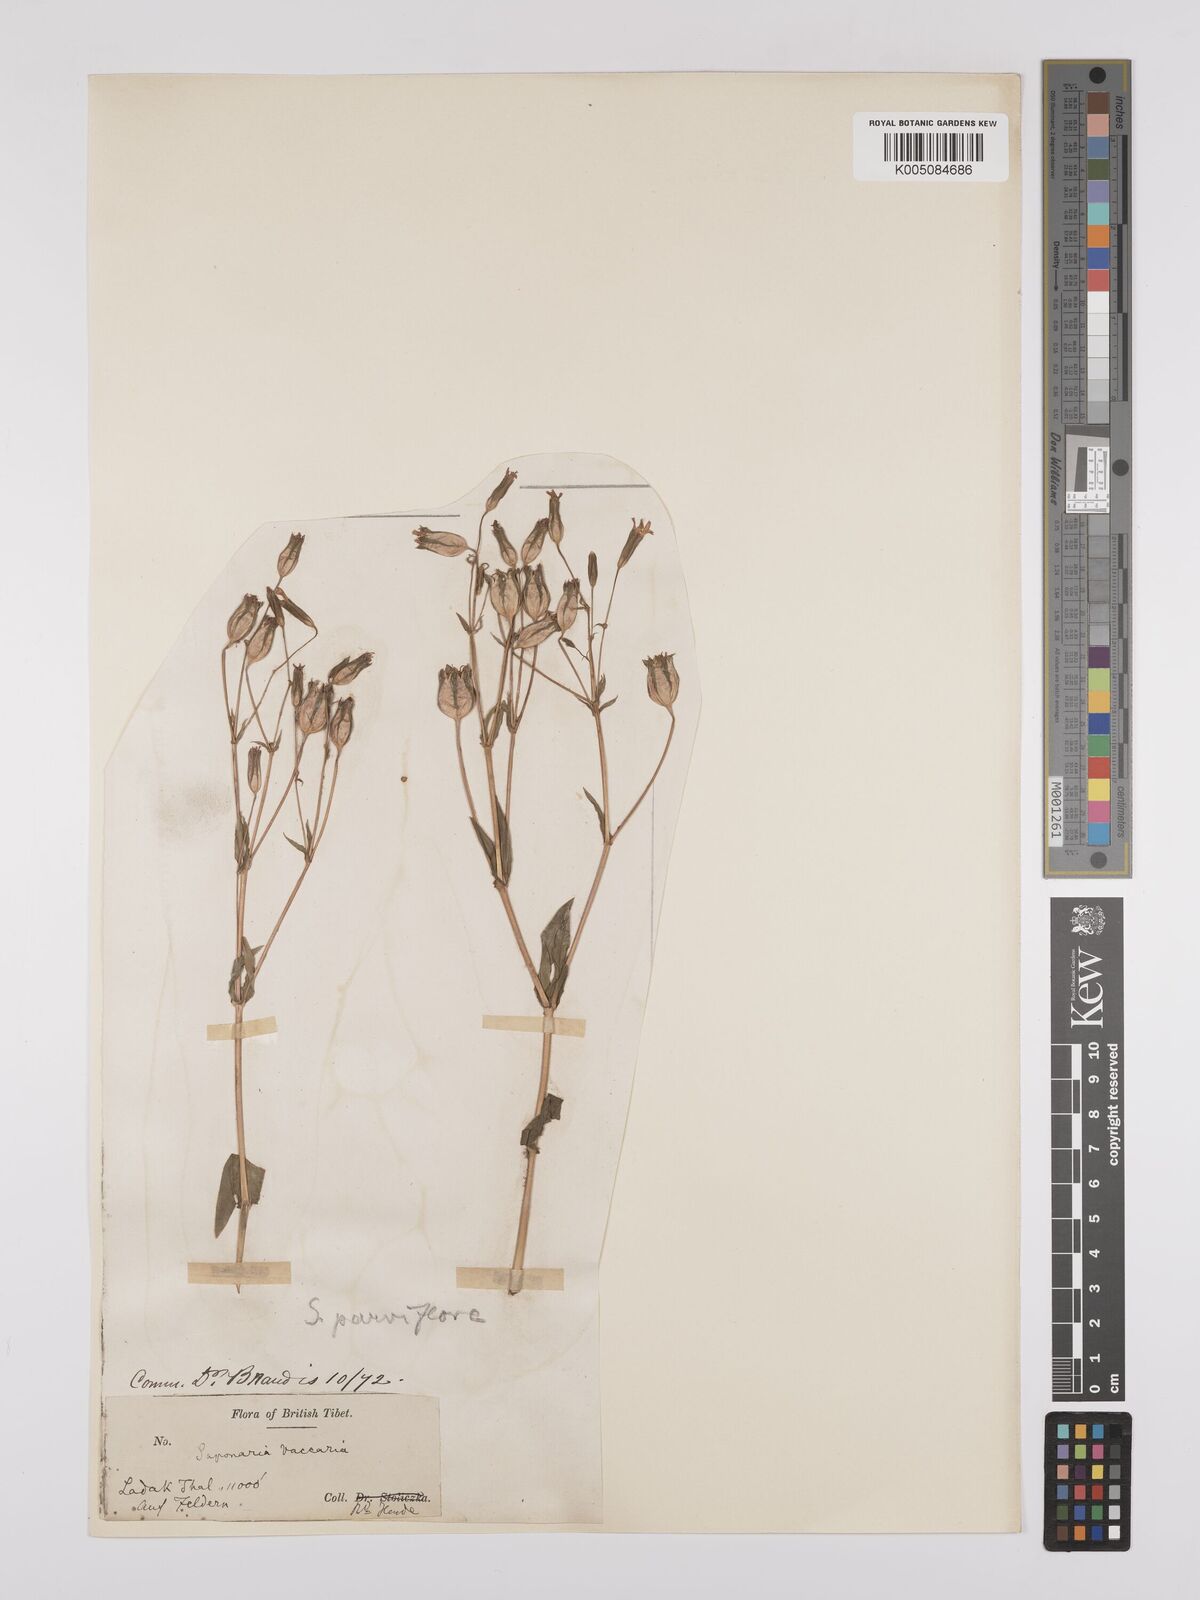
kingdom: Plantae
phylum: Tracheophyta
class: Magnoliopsida
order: Caryophyllales
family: Caryophyllaceae
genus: Gypsophila
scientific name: Gypsophila vaccaria
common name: Cow soapwort
